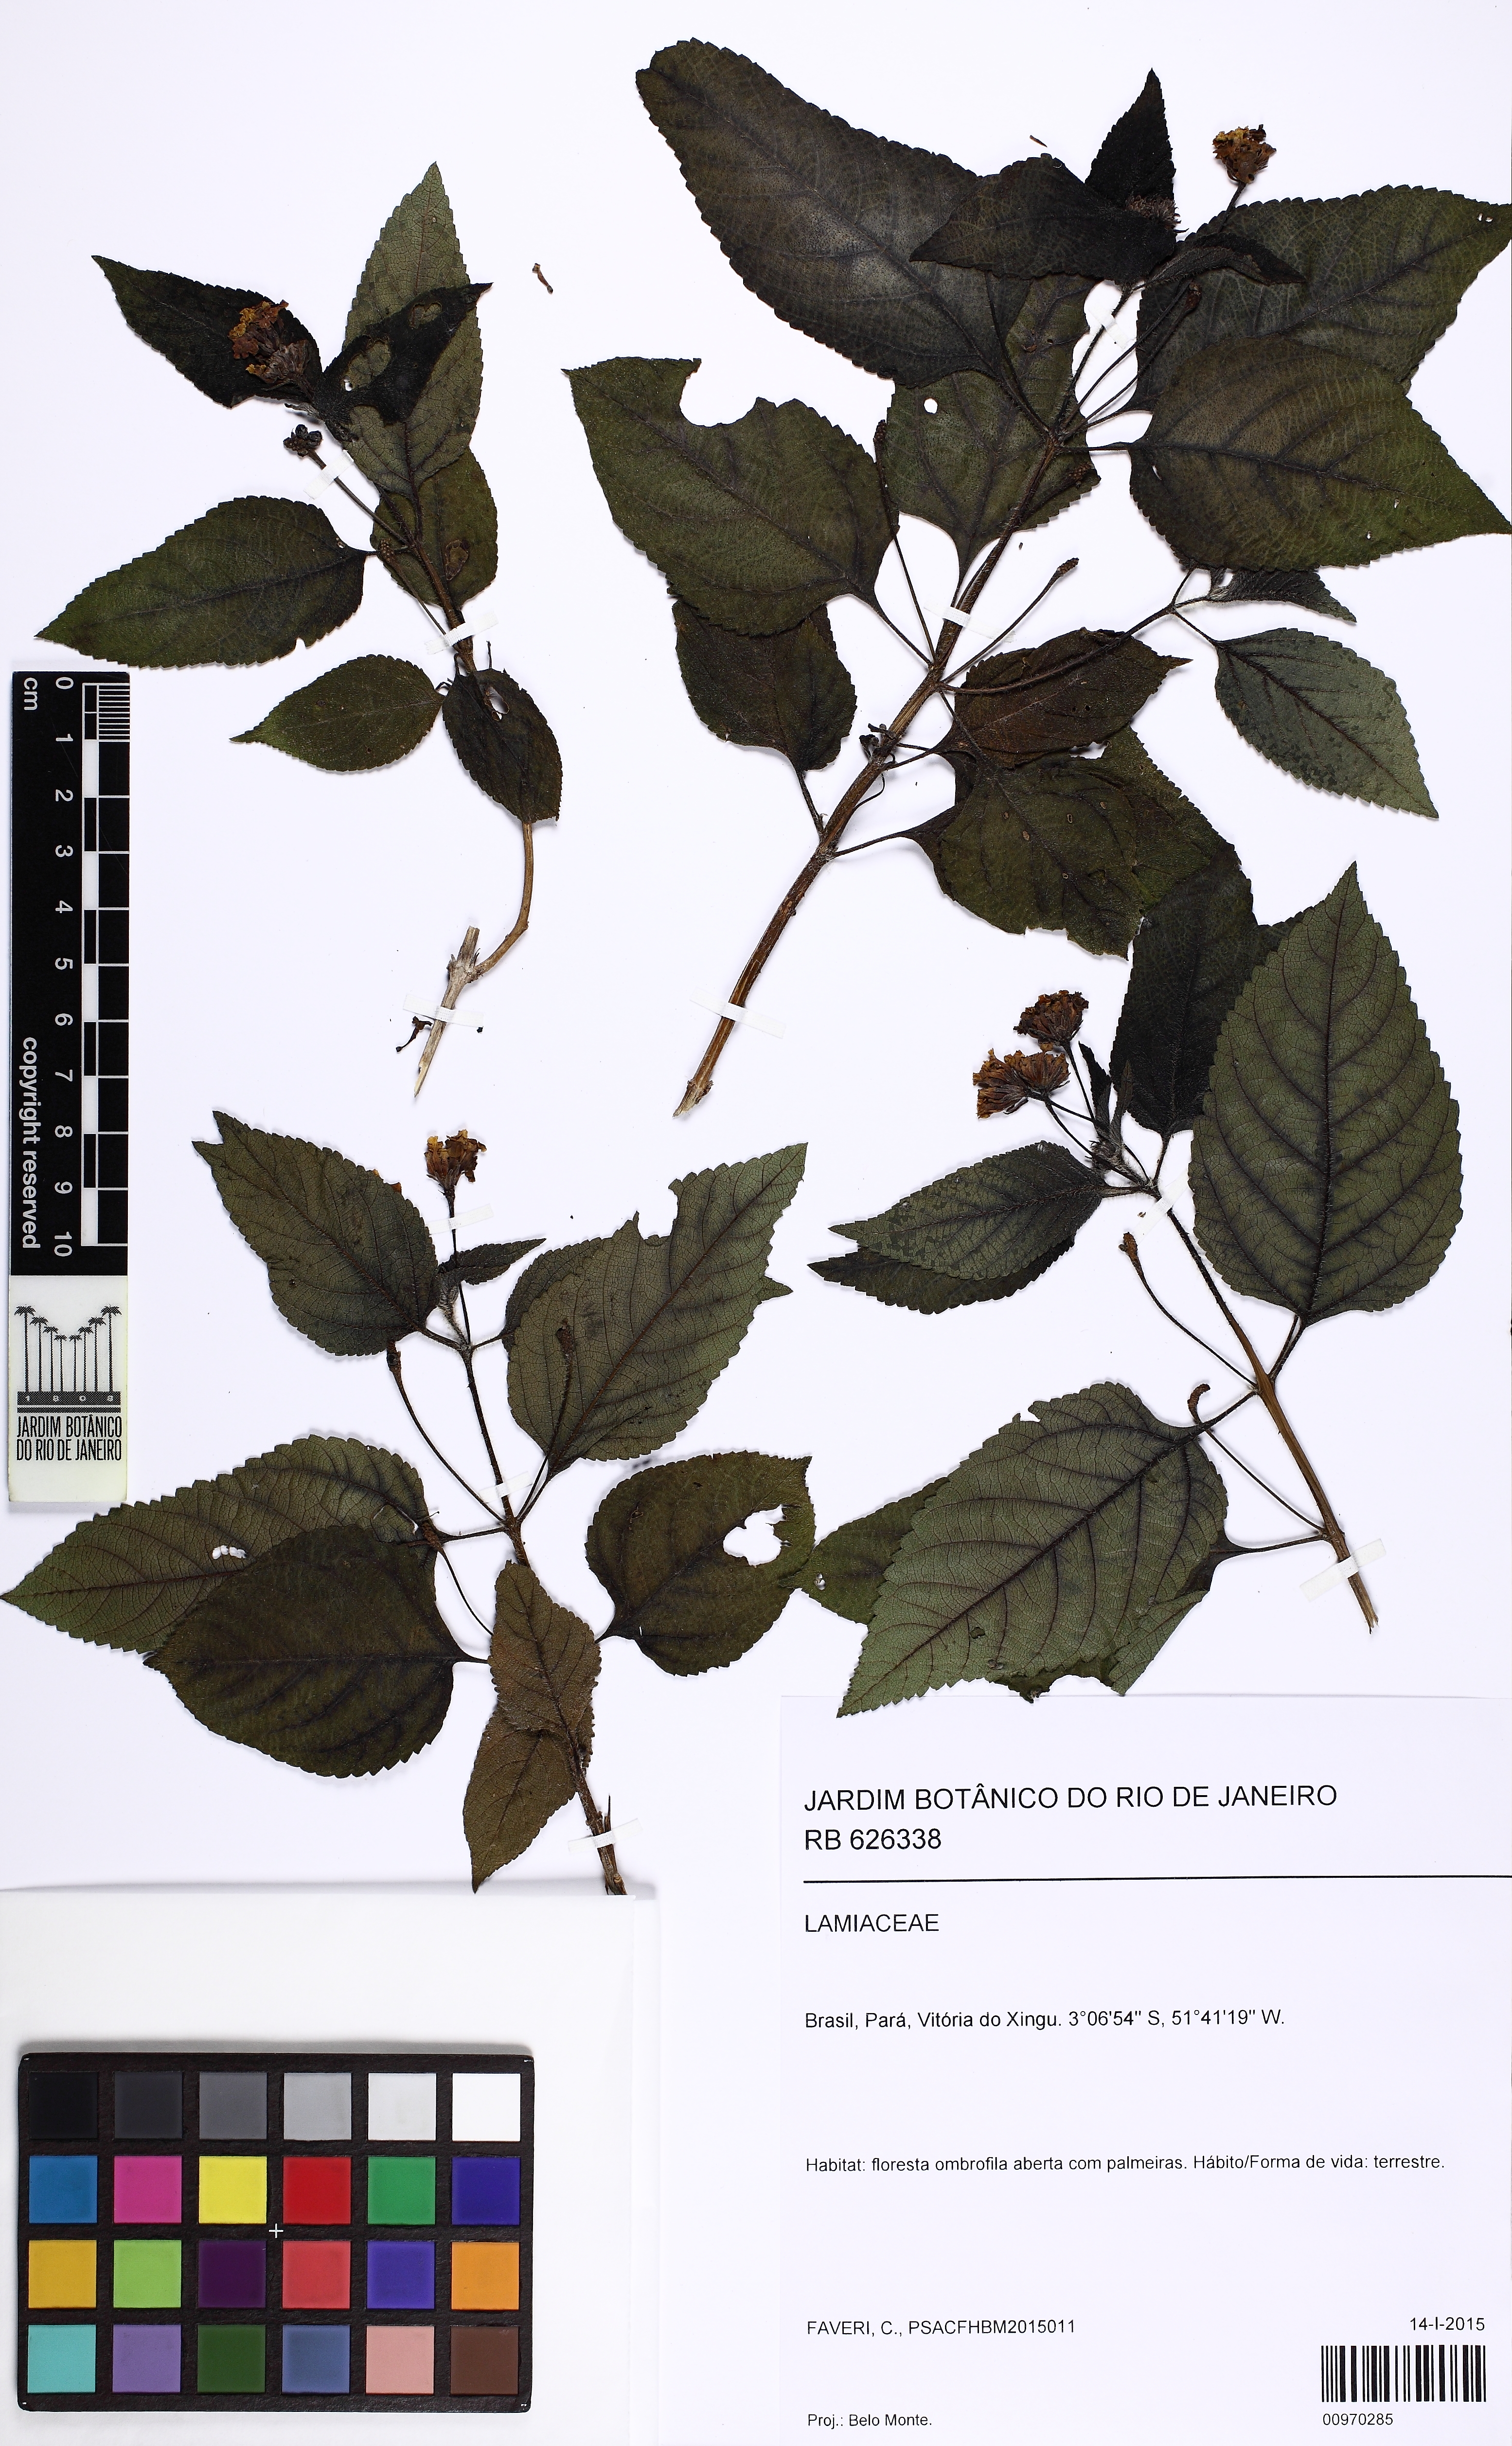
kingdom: Plantae
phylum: Tracheophyta
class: Magnoliopsida
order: Lamiales
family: Verbenaceae
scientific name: Verbenaceae
